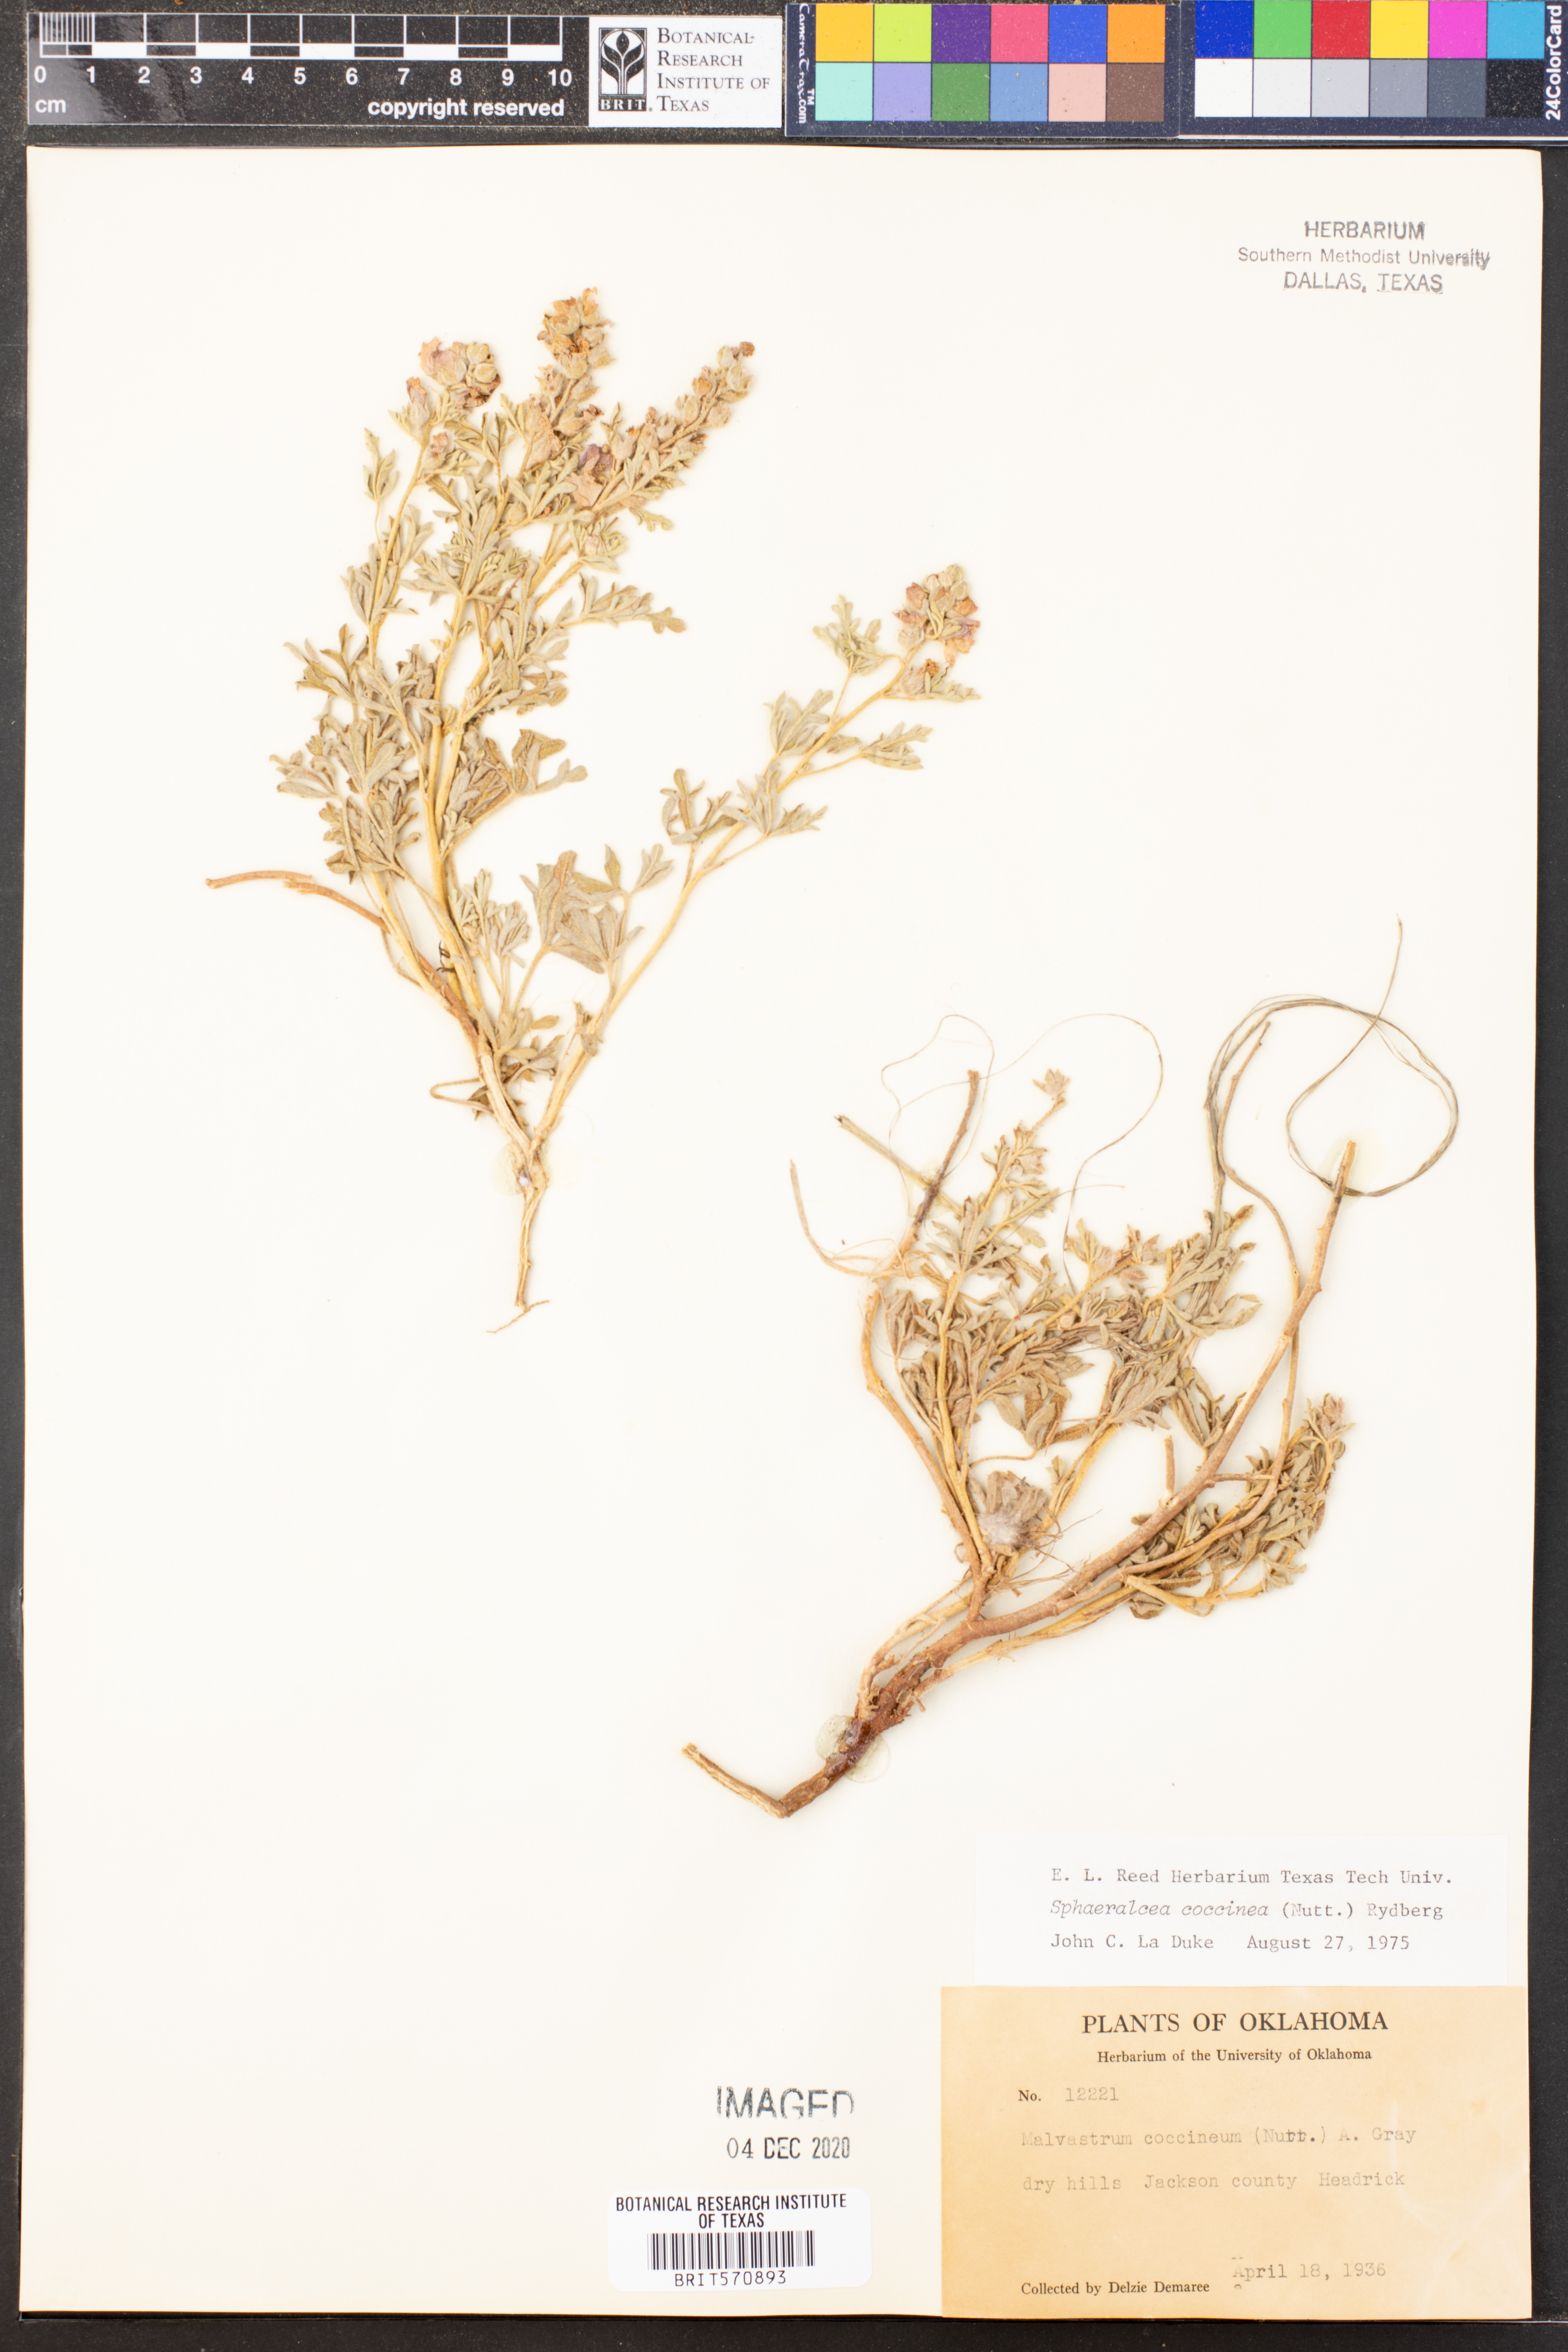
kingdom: Plantae
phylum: Tracheophyta
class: Magnoliopsida
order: Malvales
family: Malvaceae
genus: Sphaeralcea
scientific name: Sphaeralcea coccinea
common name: Moss-rose
